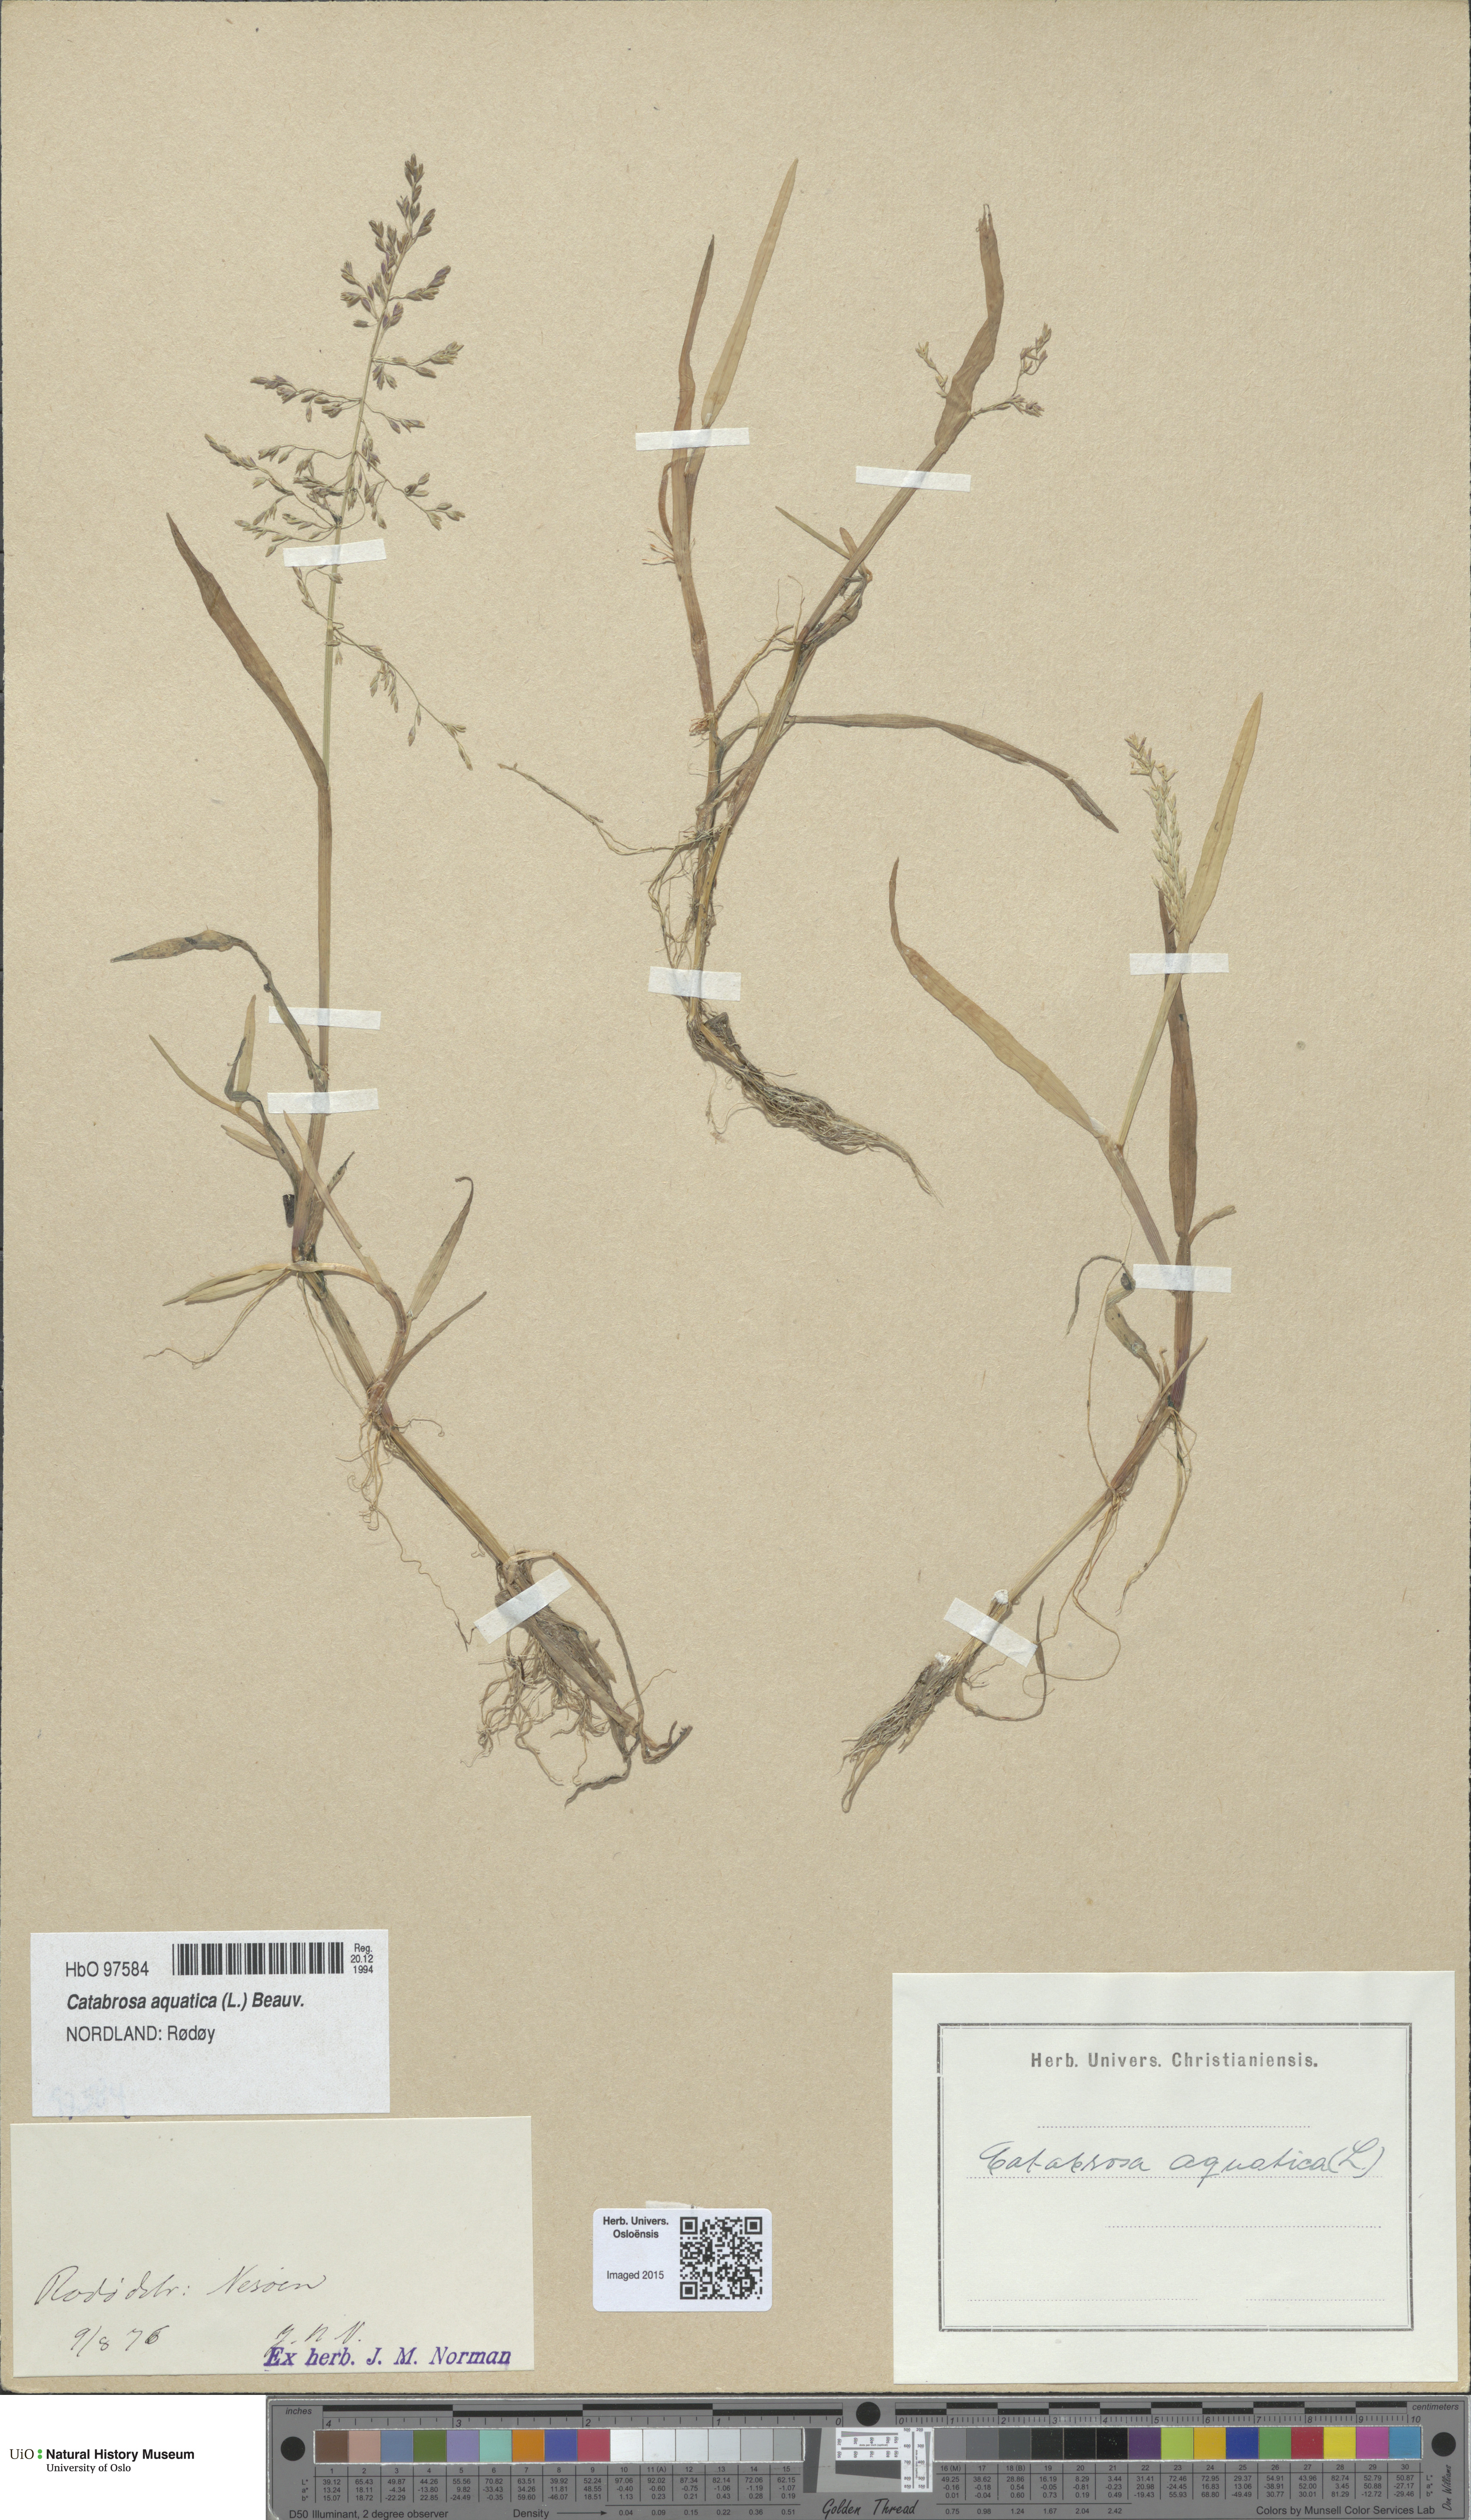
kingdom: Plantae
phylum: Tracheophyta
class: Liliopsida
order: Poales
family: Poaceae
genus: Catabrosa
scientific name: Catabrosa aquatica
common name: Whorl-grass
